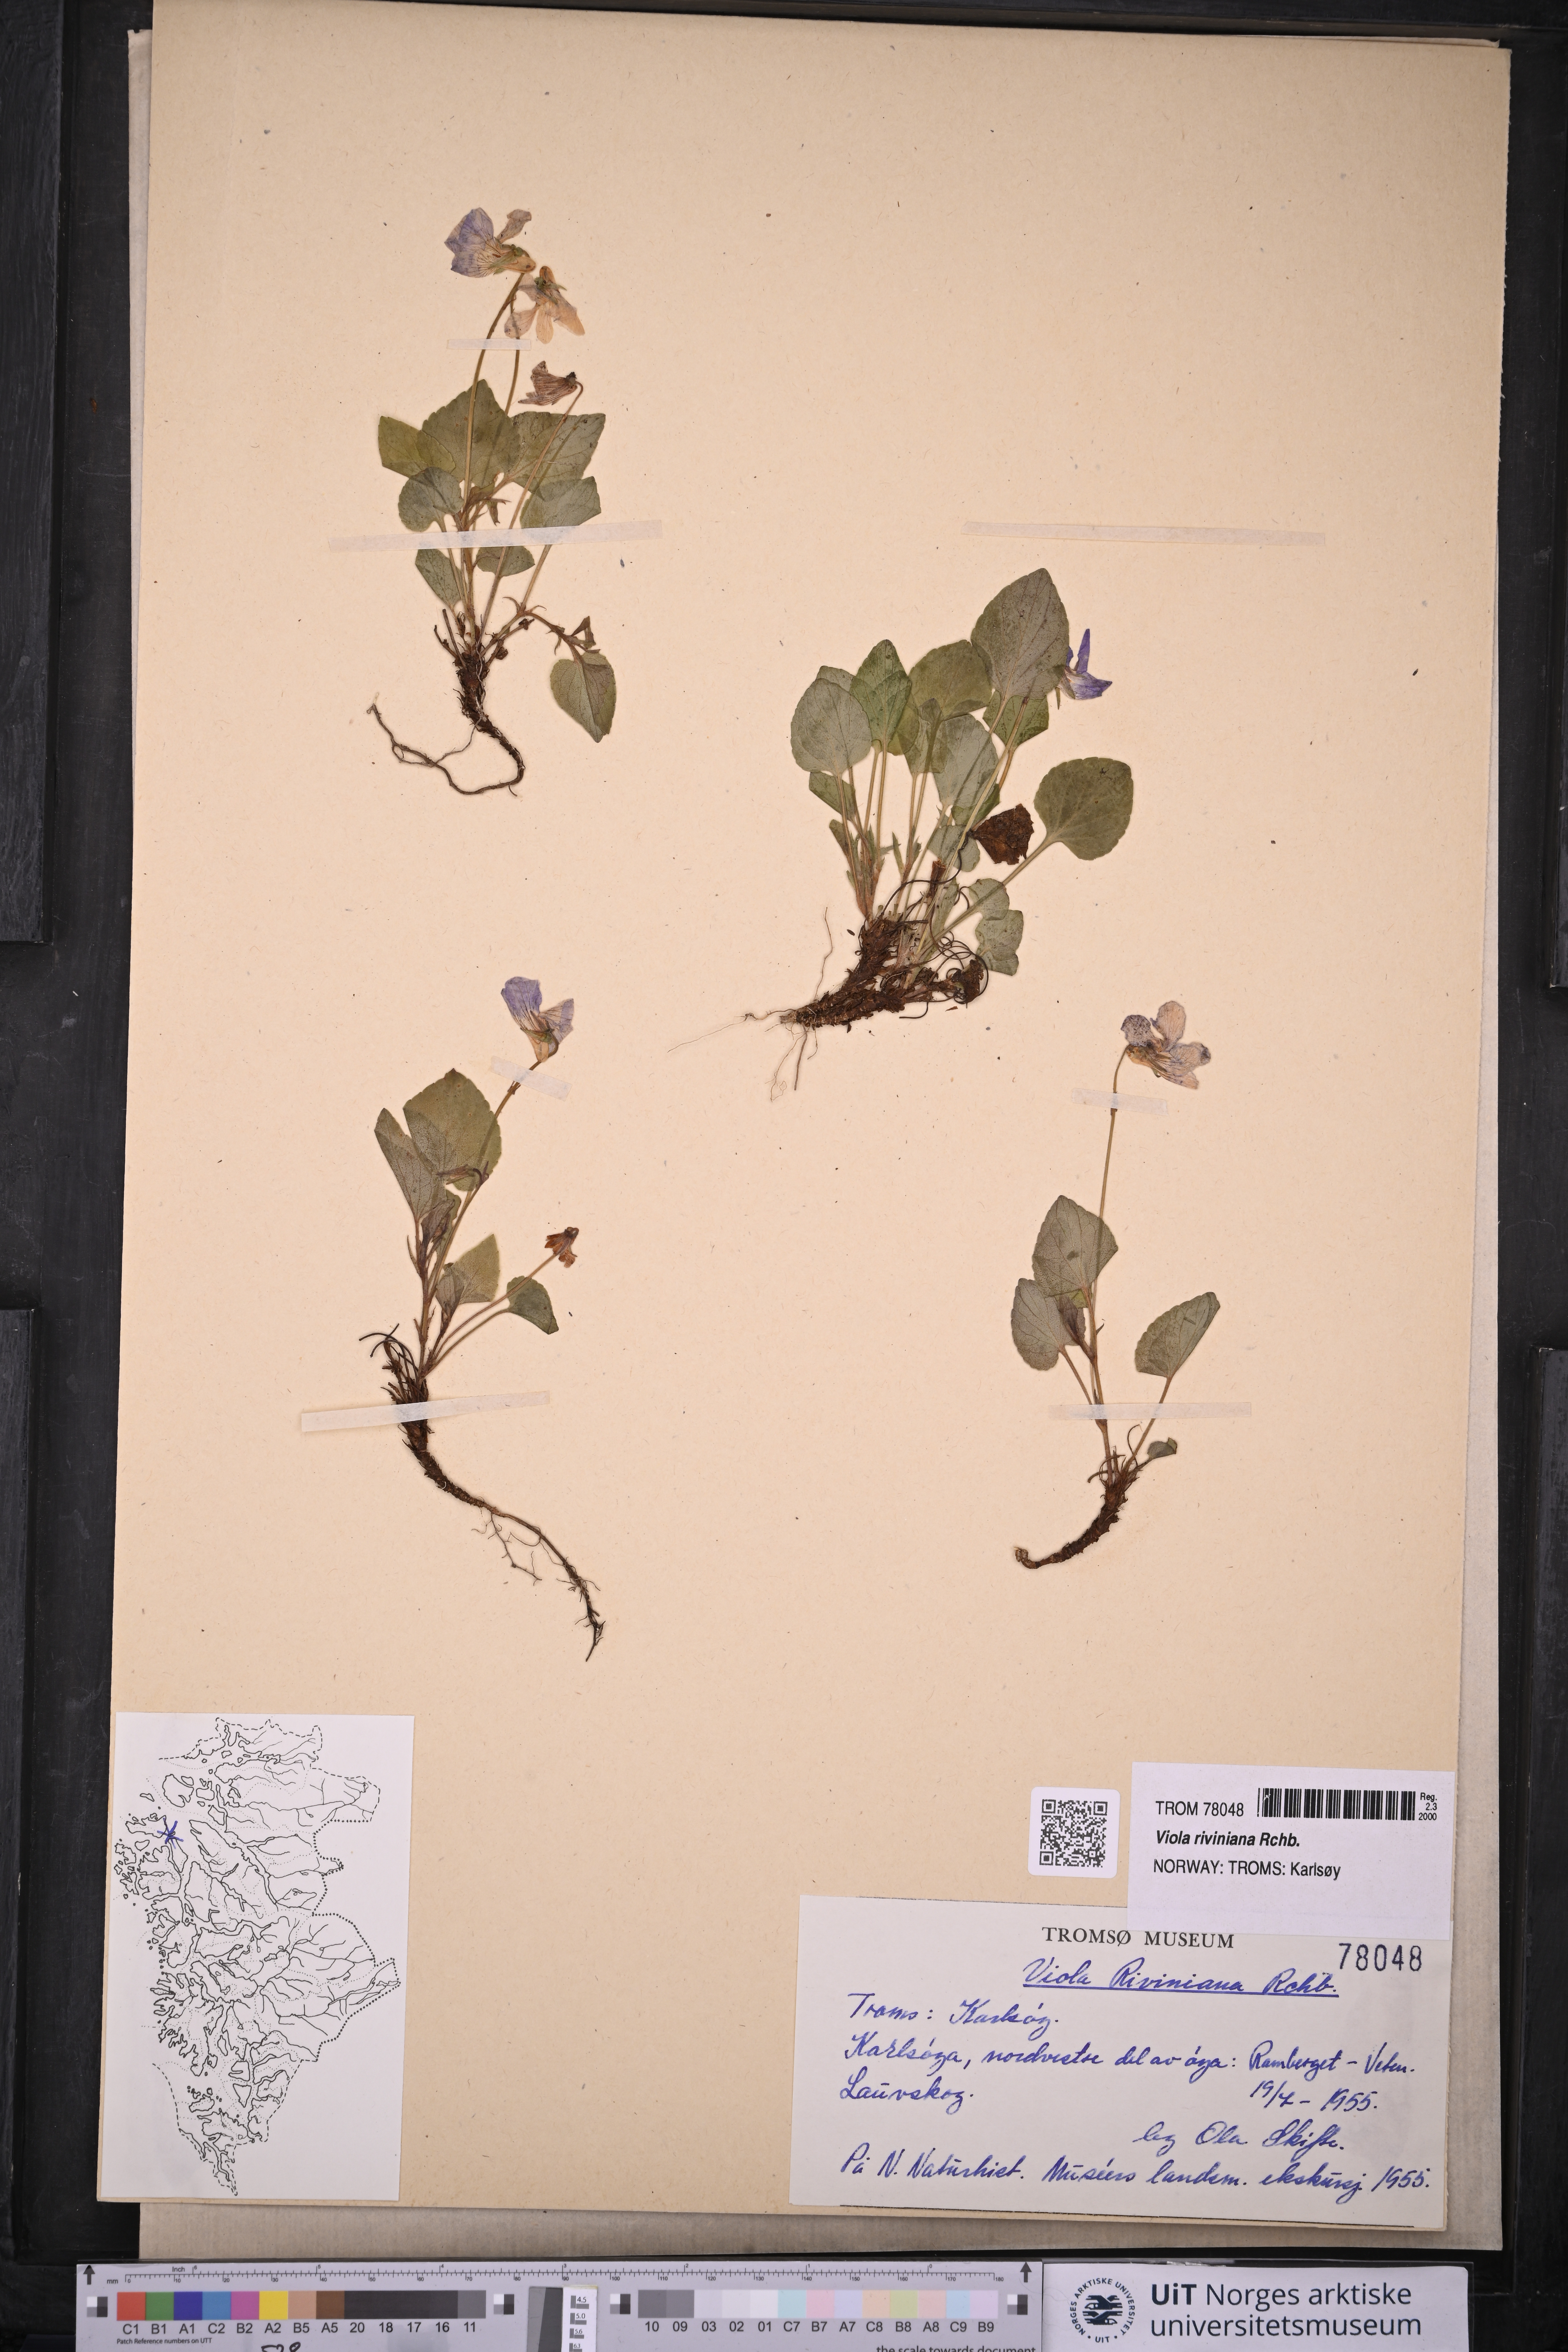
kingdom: Plantae
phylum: Tracheophyta
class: Magnoliopsida
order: Malpighiales
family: Violaceae
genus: Viola
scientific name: Viola riviniana
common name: Common dog-violet
